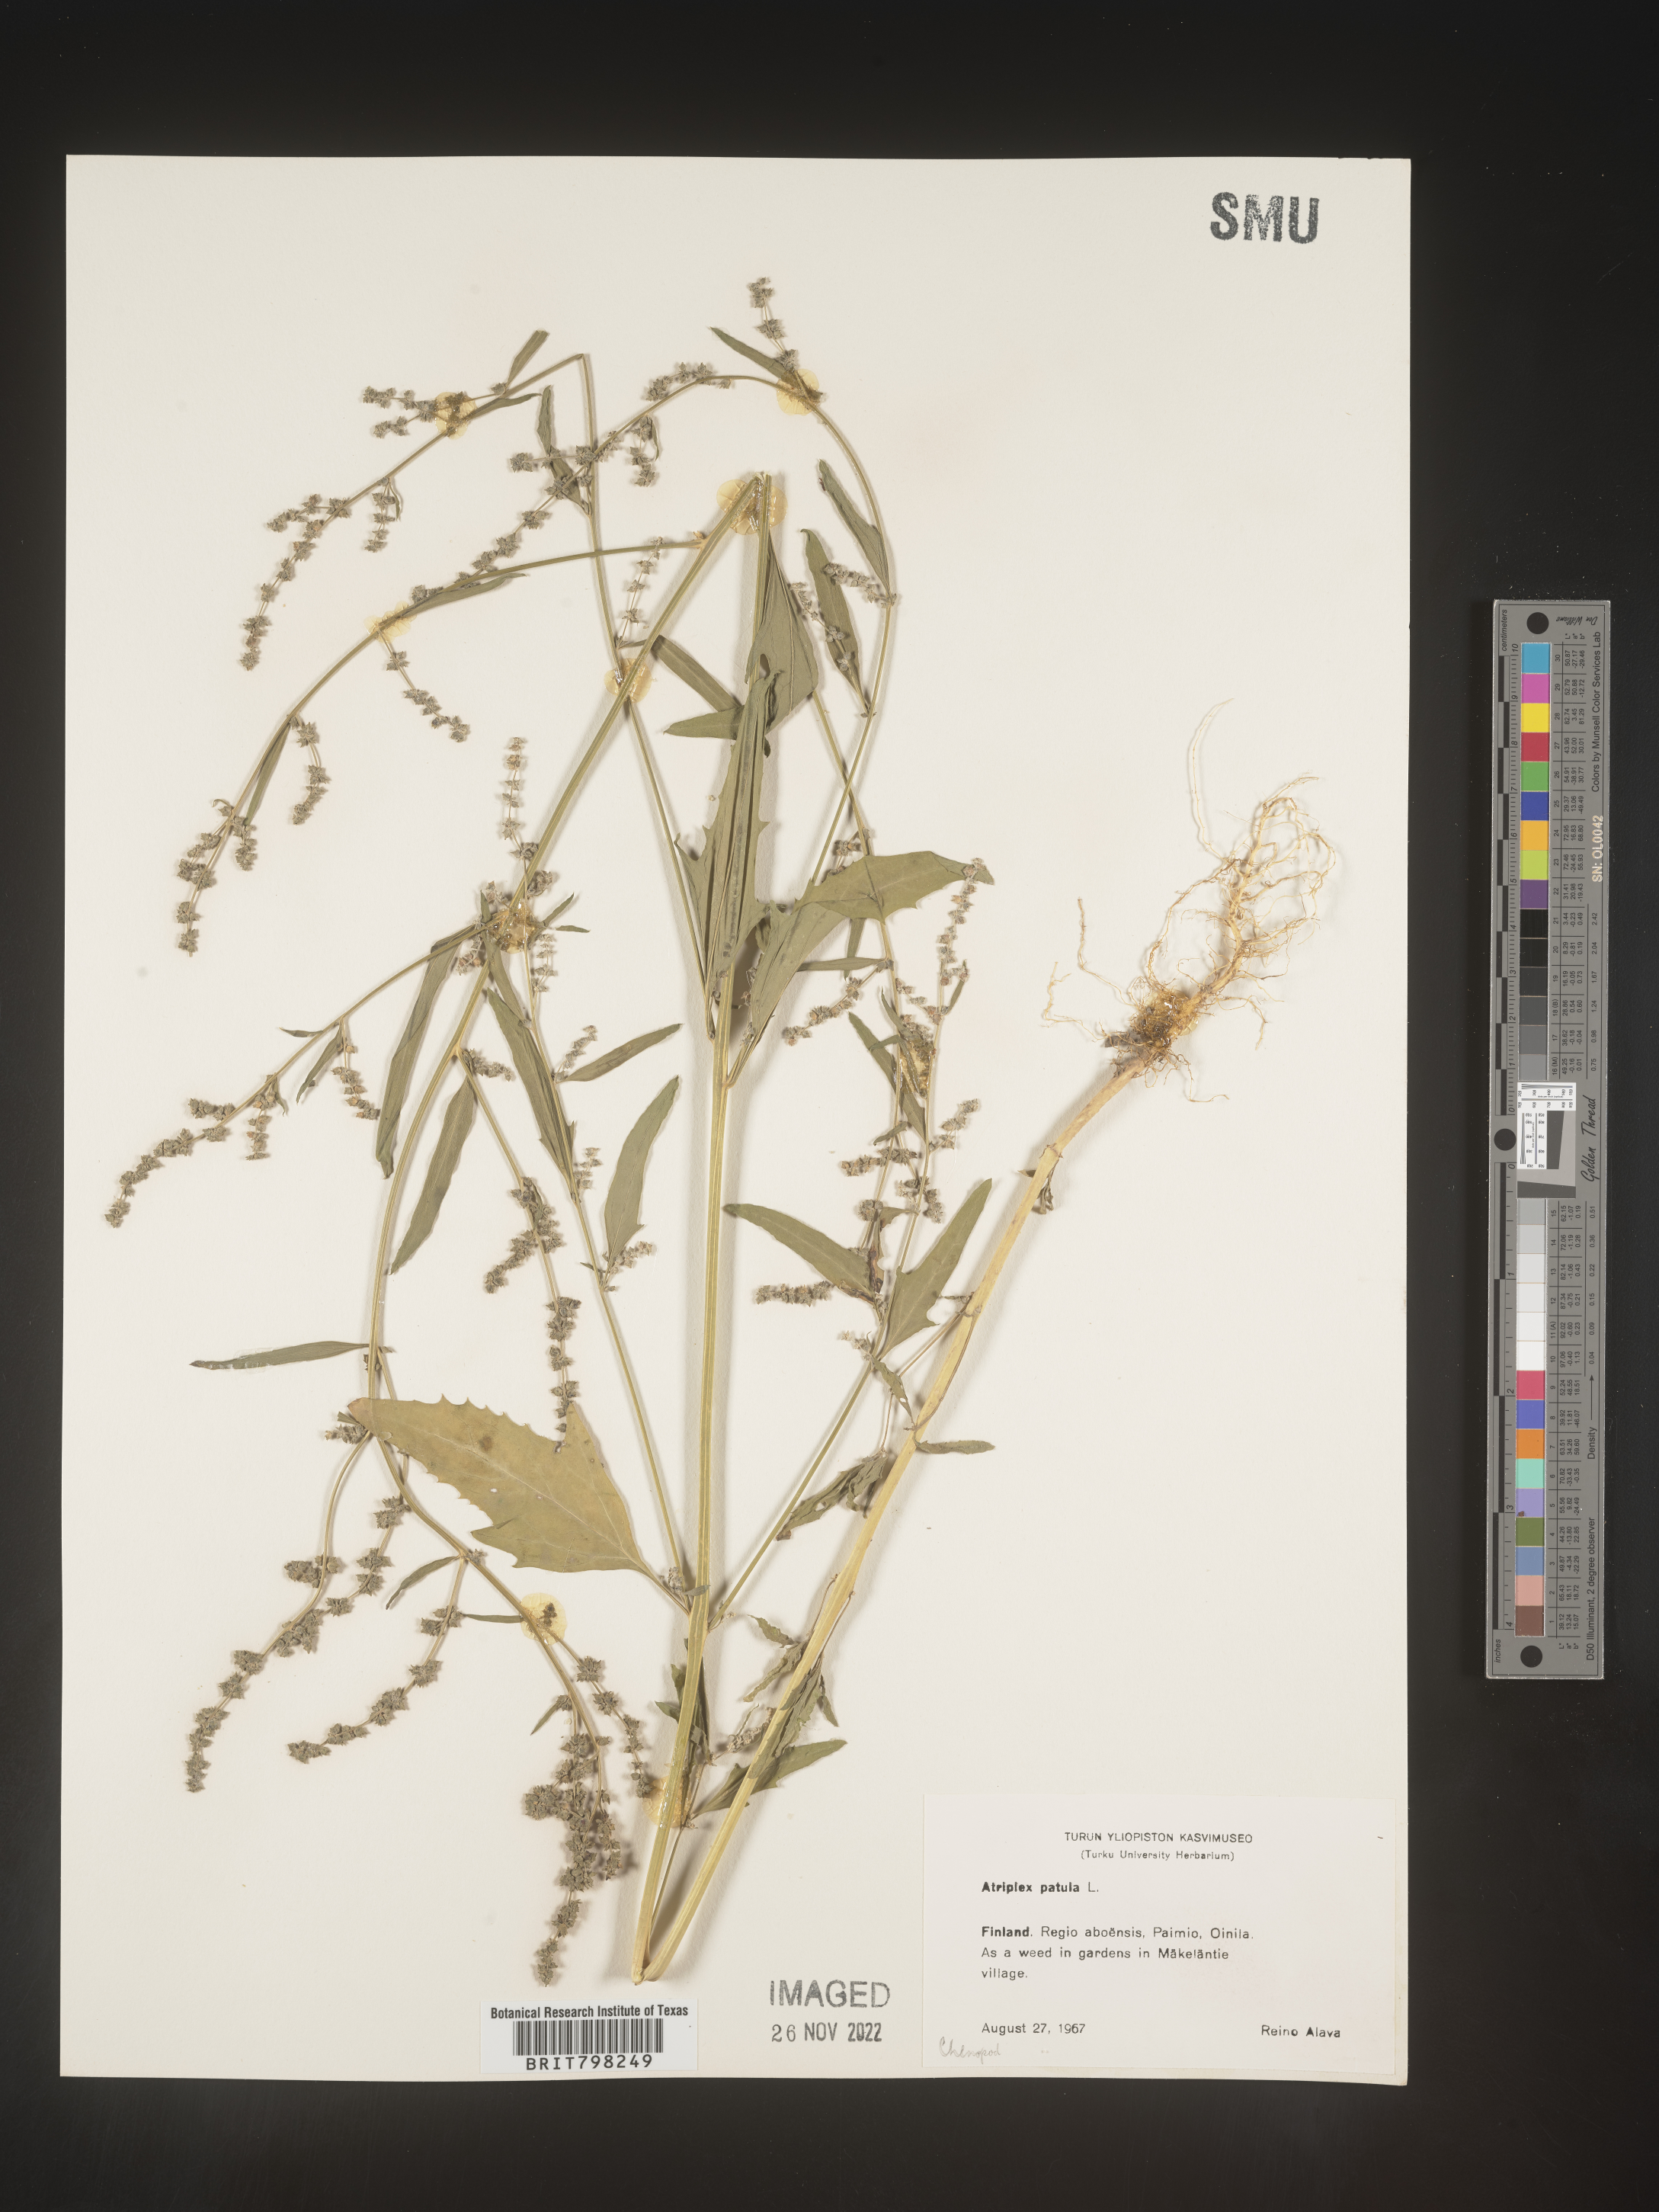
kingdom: Plantae
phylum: Tracheophyta
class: Magnoliopsida
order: Caryophyllales
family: Amaranthaceae
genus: Atriplex
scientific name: Atriplex patula
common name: Common orache
